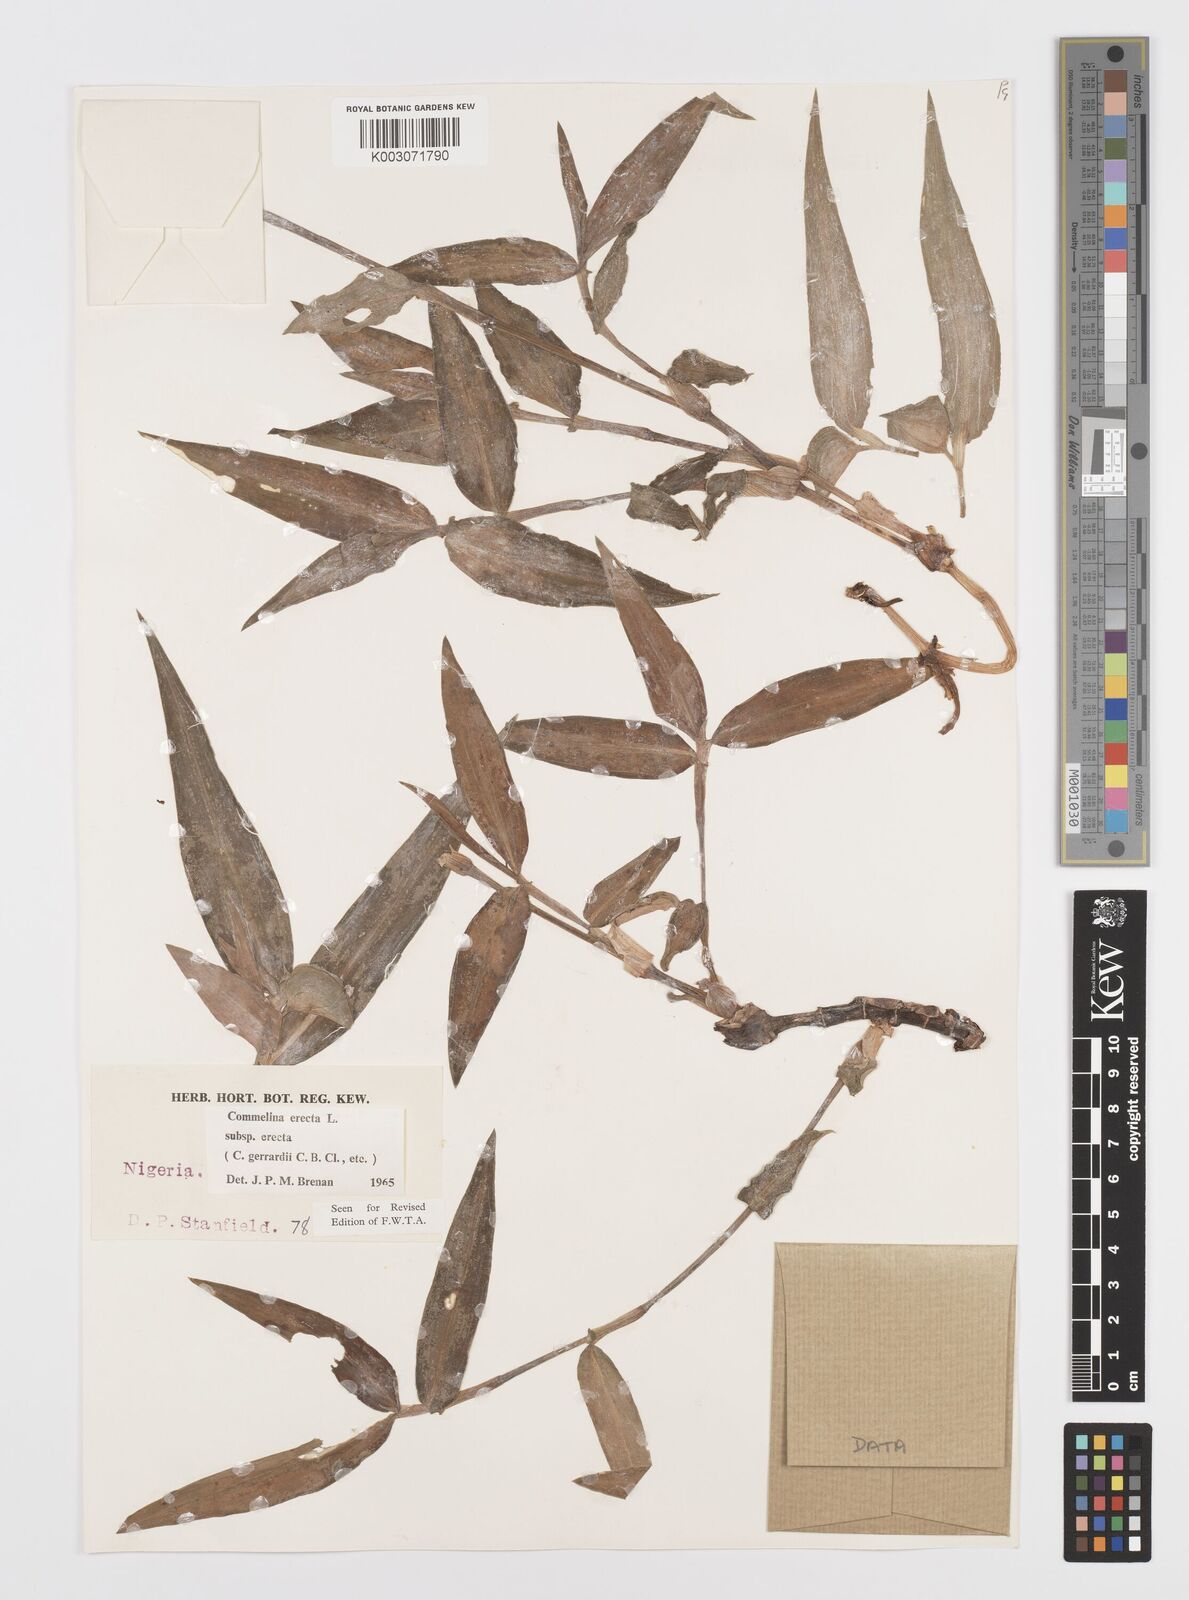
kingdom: Plantae
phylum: Tracheophyta
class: Liliopsida
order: Commelinales
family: Commelinaceae
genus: Commelina
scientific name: Commelina erecta
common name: Blousel blommetjie
